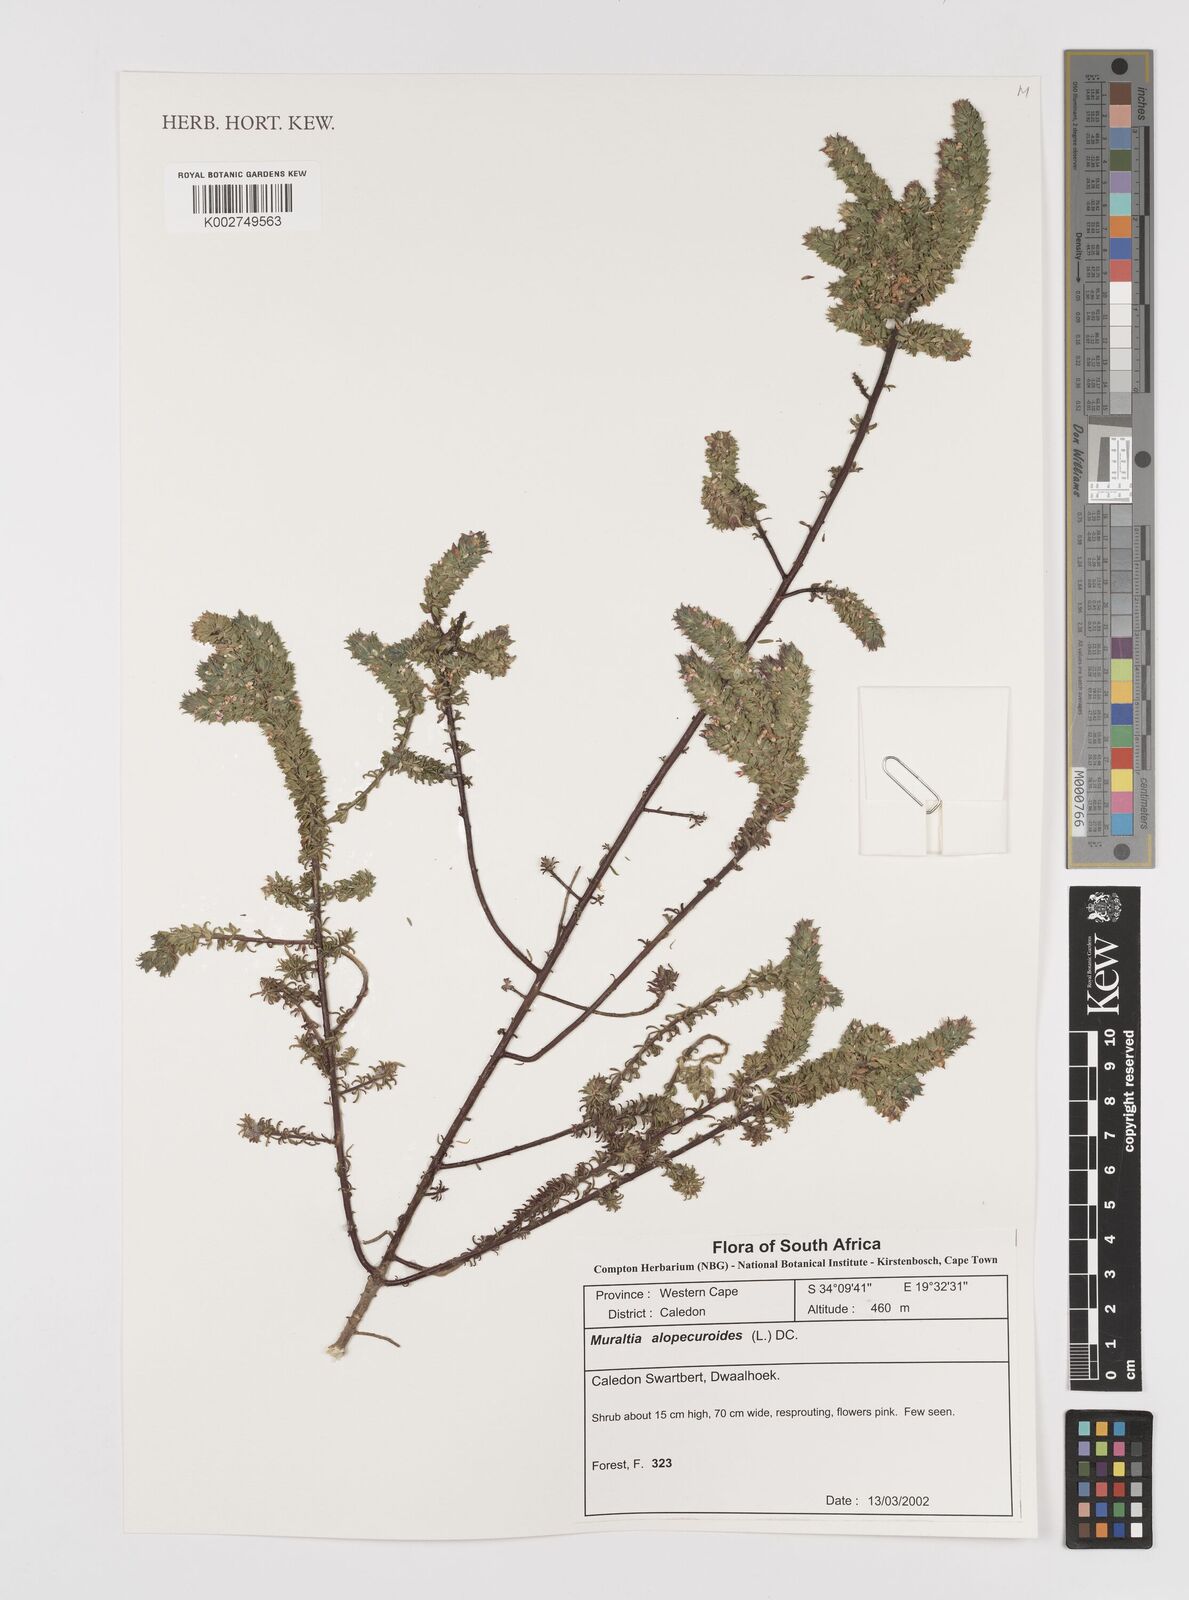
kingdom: Plantae
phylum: Tracheophyta
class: Magnoliopsida
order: Fabales
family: Polygalaceae
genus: Muraltia
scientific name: Muraltia alopecuroides
